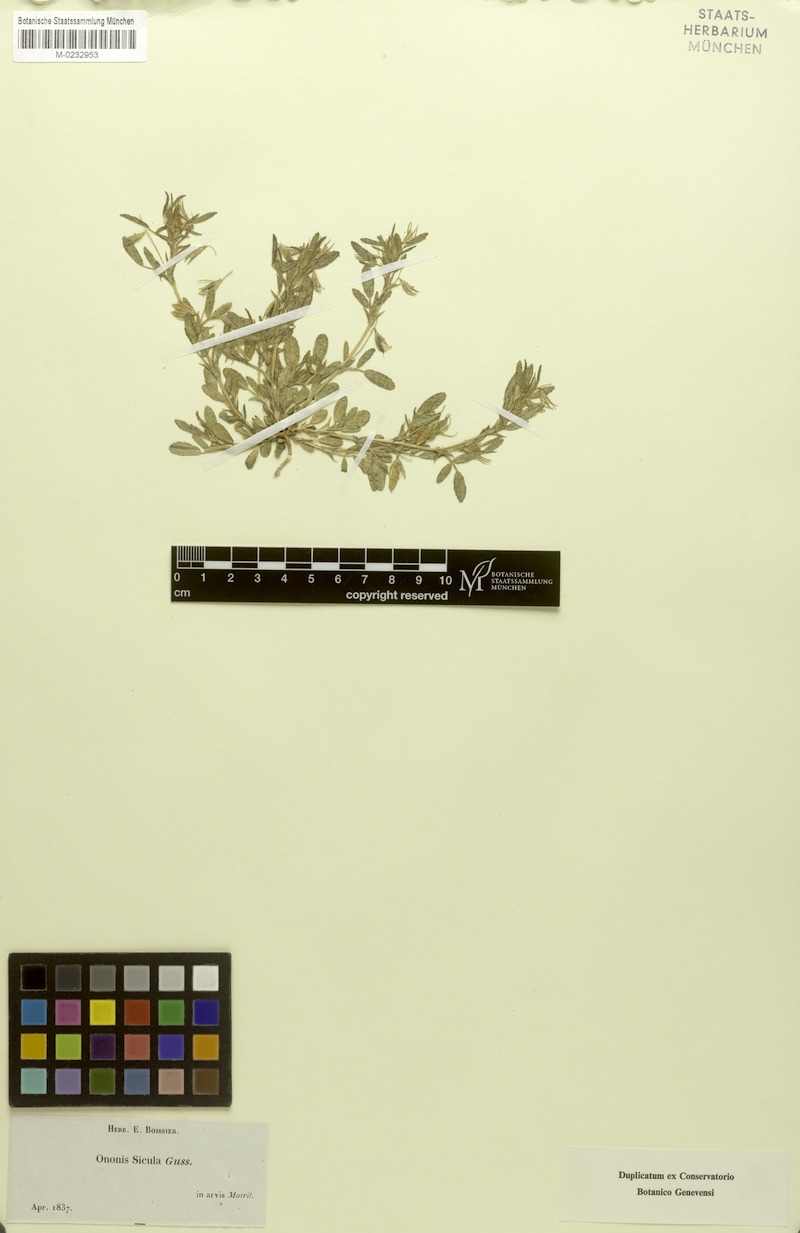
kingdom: Plantae
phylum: Tracheophyta
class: Magnoliopsida
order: Fabales
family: Fabaceae
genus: Ononis
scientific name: Ononis sicula
